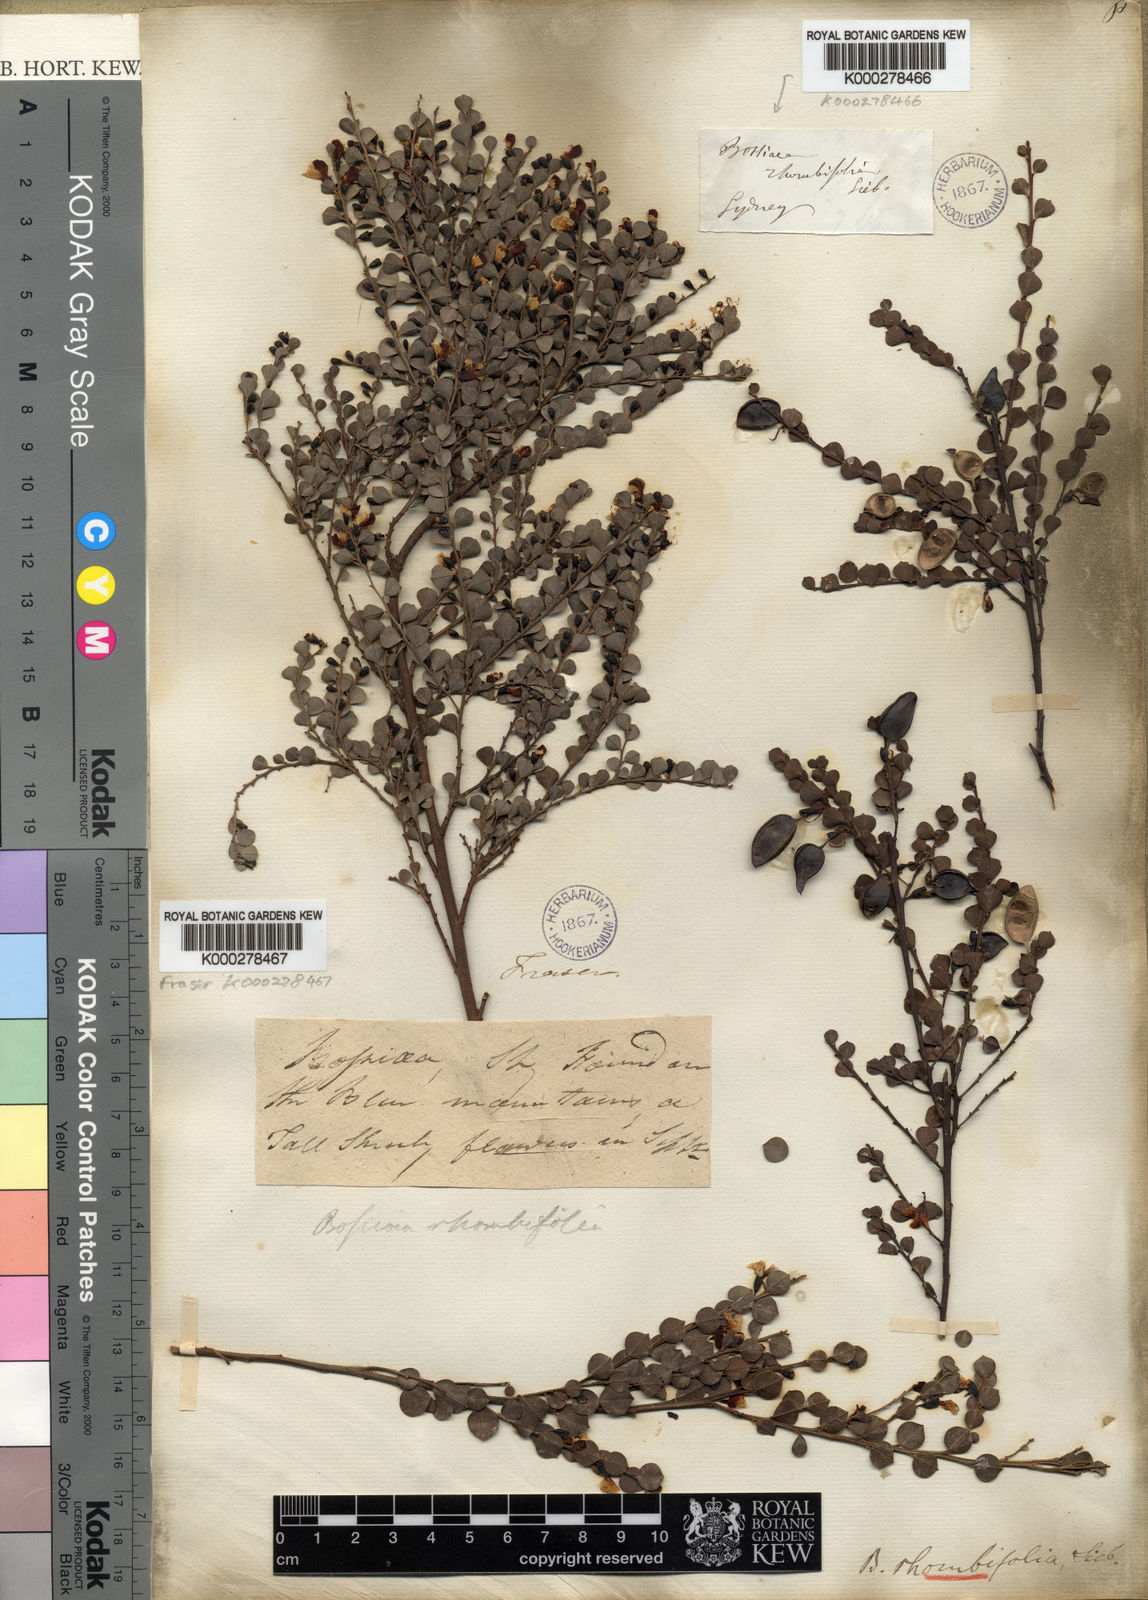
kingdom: Plantae
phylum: Tracheophyta
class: Magnoliopsida
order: Fabales
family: Fabaceae
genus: Bossiaea
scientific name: Bossiaea rhombifolia
